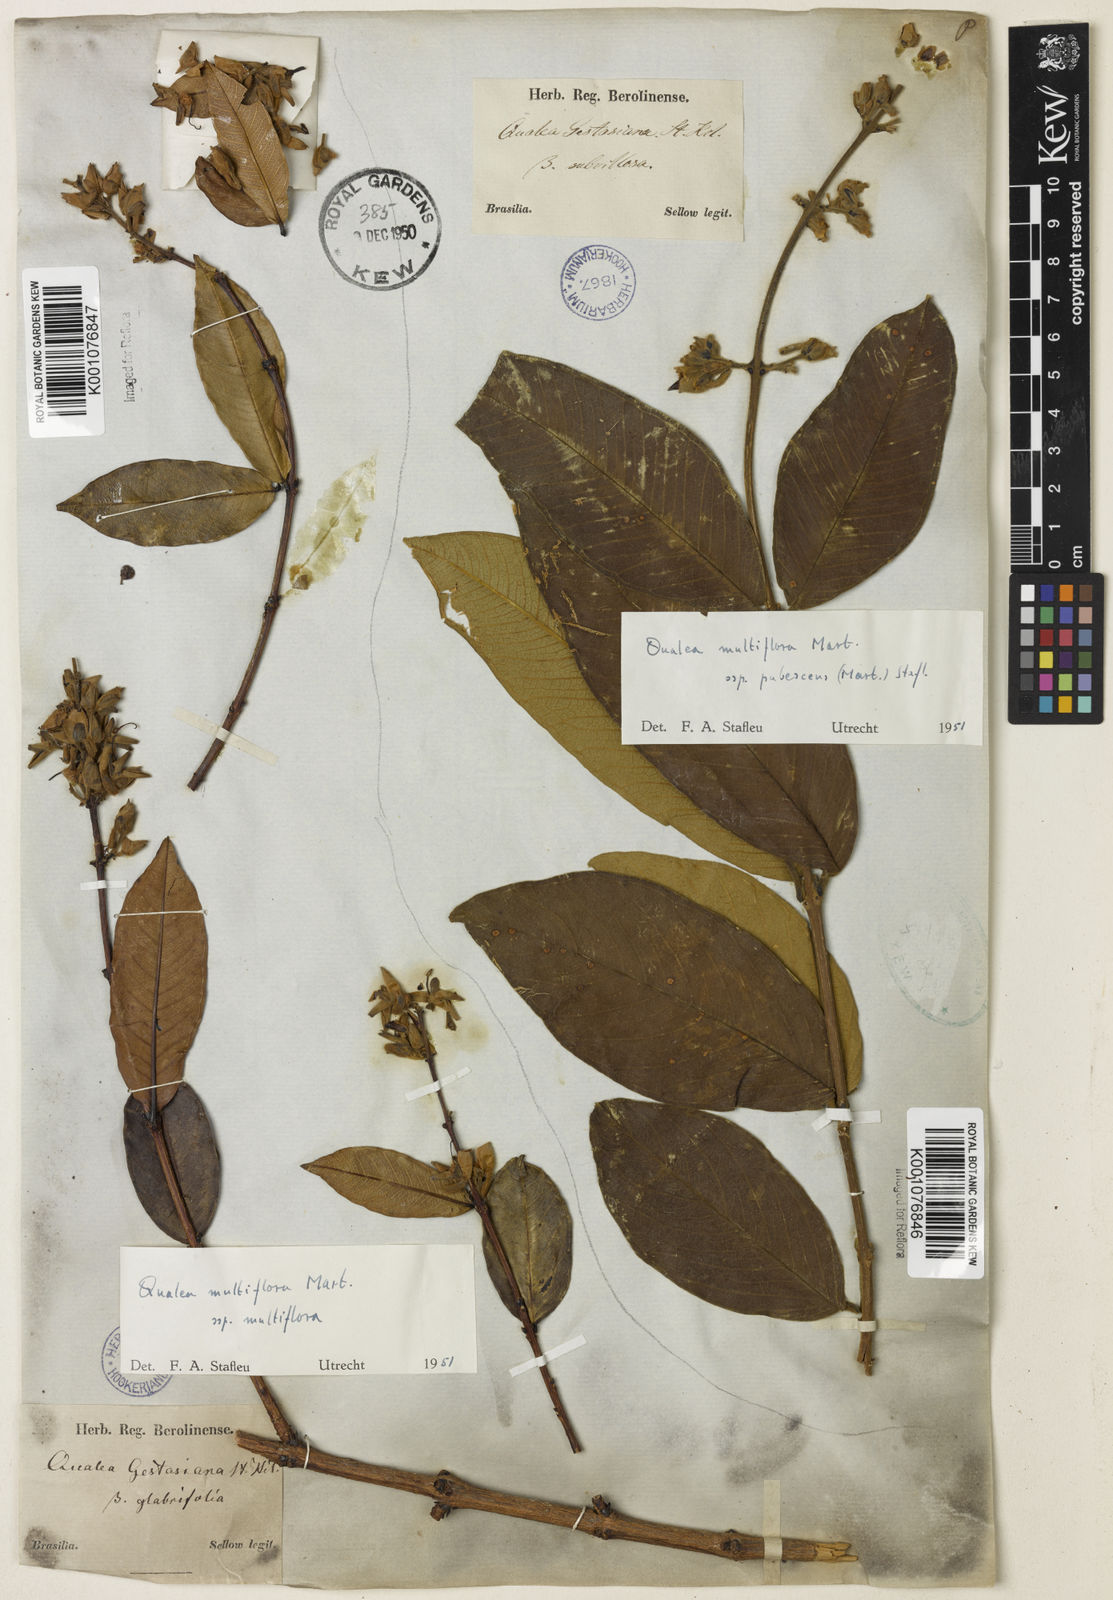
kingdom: Plantae
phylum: Tracheophyta
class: Magnoliopsida
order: Myrtales
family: Vochysiaceae
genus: Qualea
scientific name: Qualea multiflora
